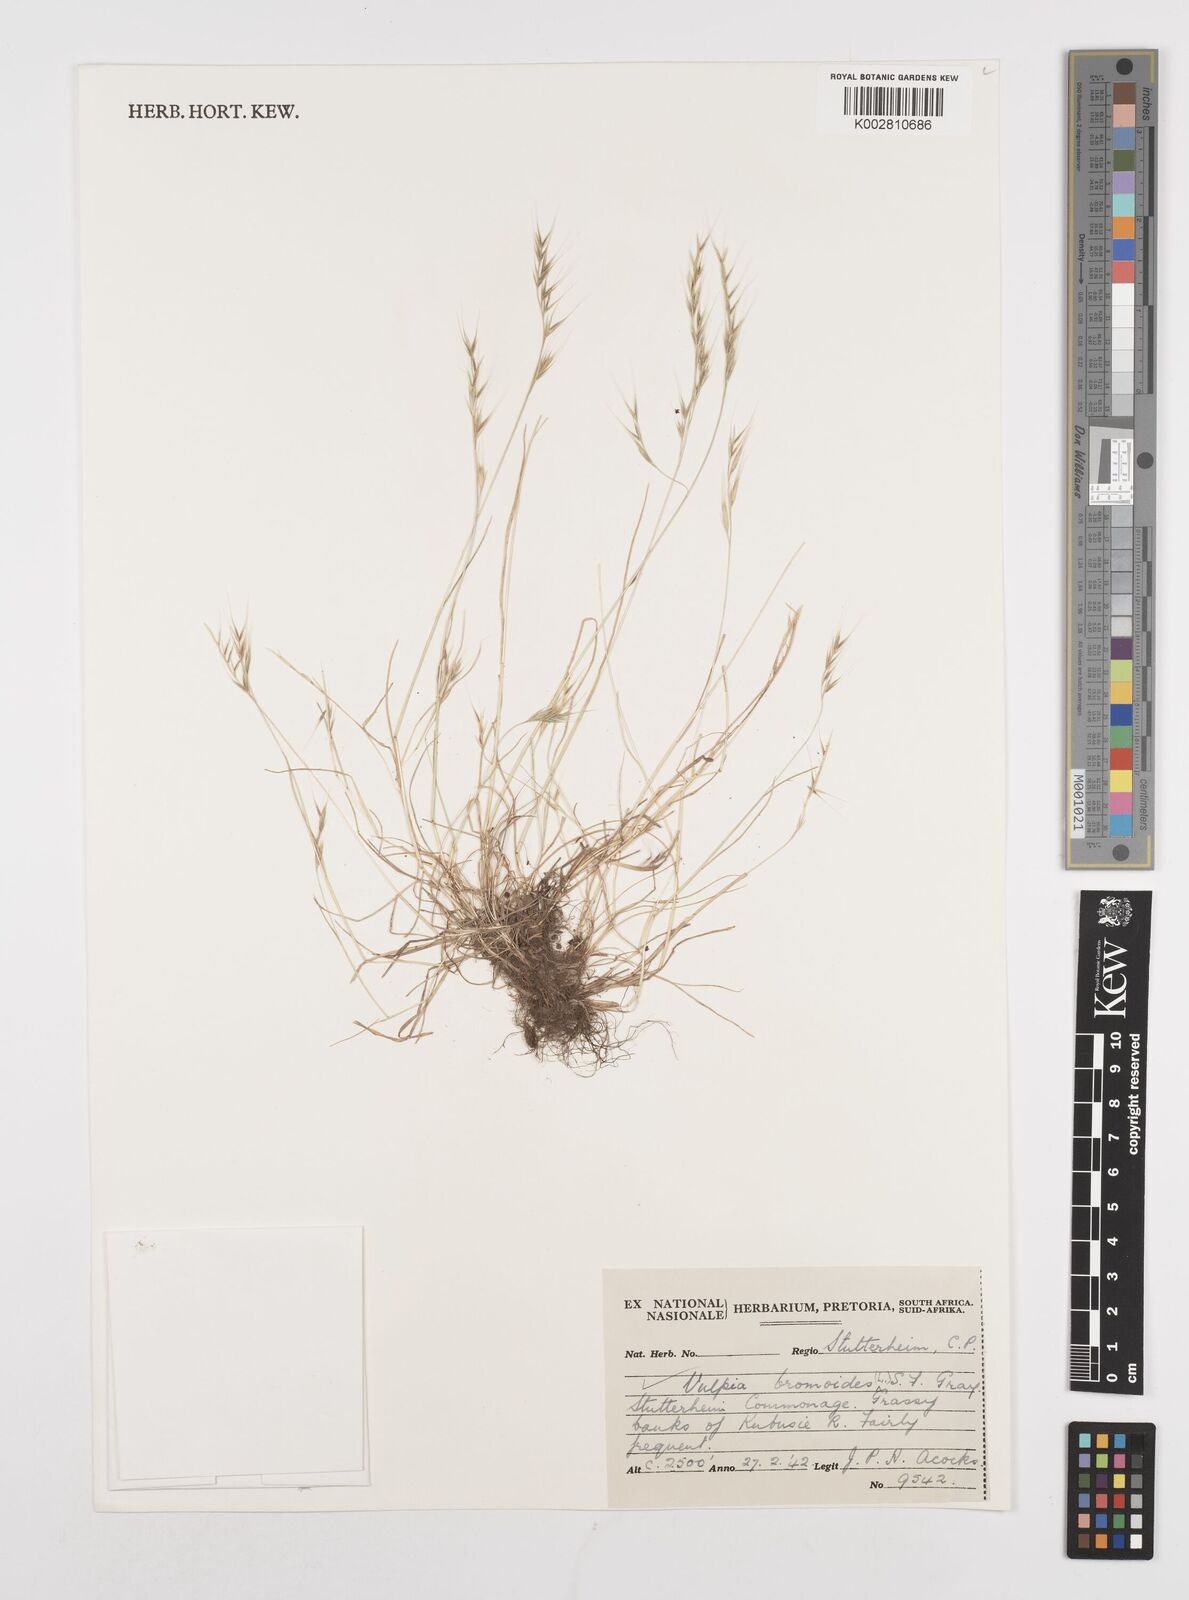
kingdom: Plantae
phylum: Tracheophyta
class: Liliopsida
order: Poales
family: Poaceae
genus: Festuca
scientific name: Festuca bromoides
